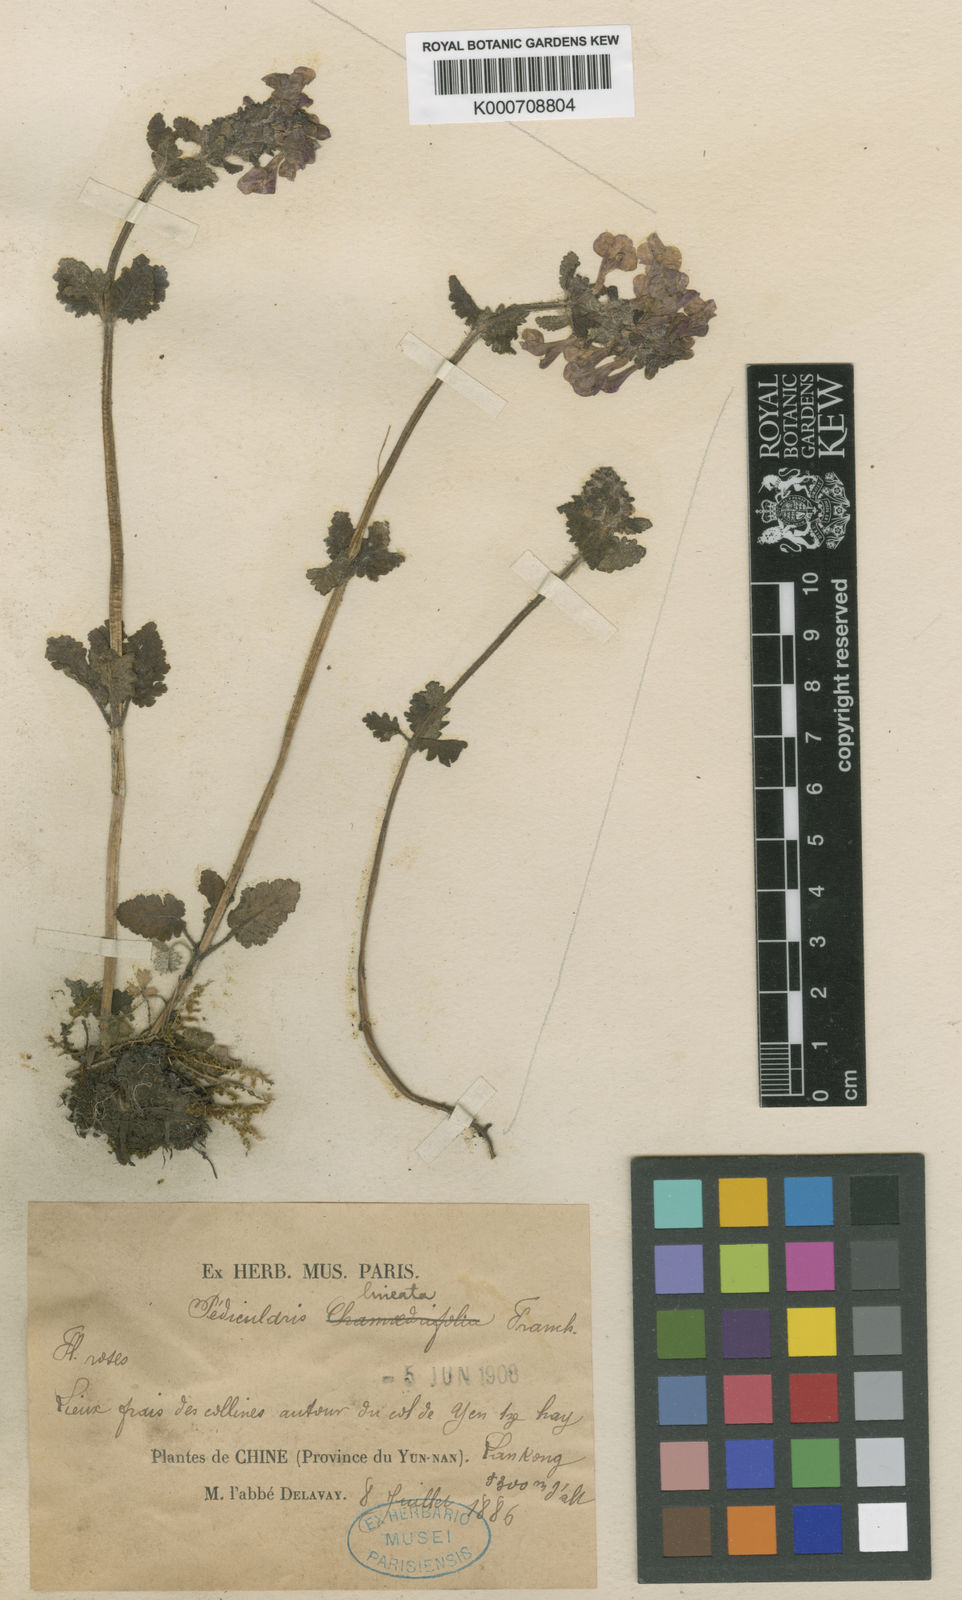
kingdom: Plantae
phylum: Tracheophyta
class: Magnoliopsida
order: Lamiales
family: Orobanchaceae
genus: Pedicularis
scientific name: Pedicularis lineata
